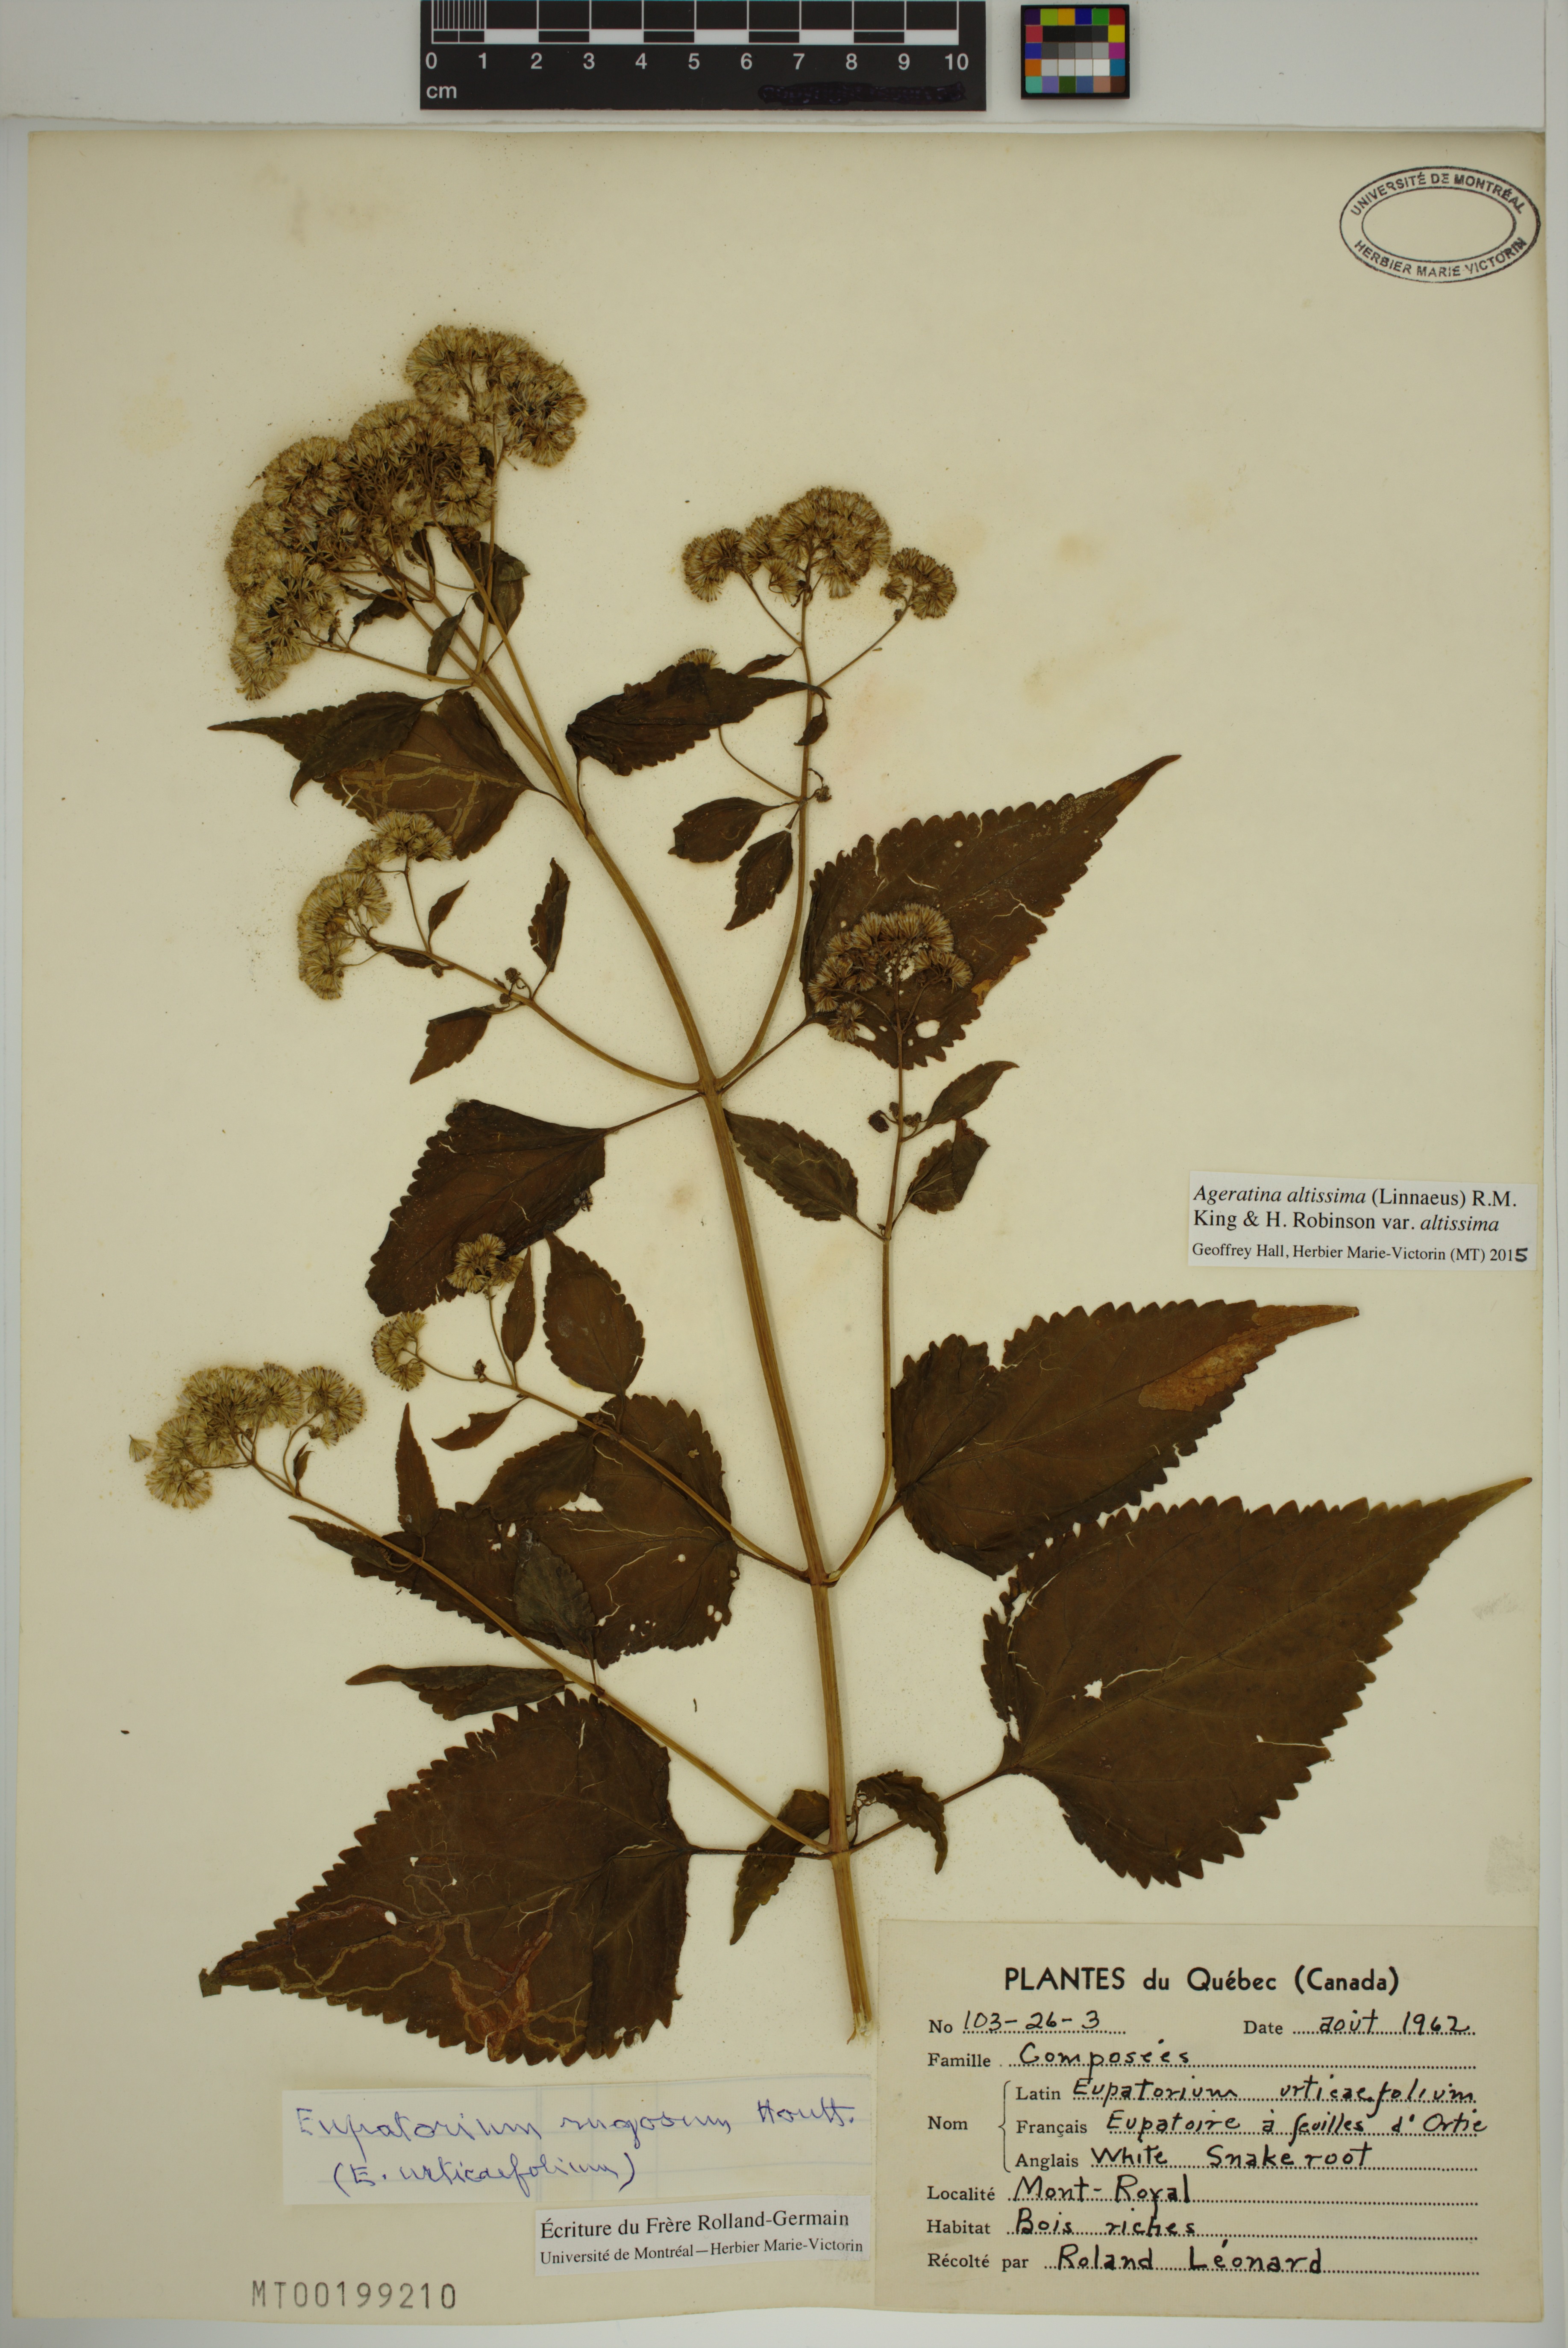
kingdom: Plantae
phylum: Tracheophyta
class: Magnoliopsida
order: Asterales
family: Asteraceae
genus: Ageratina
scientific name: Ageratina altissima
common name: White snakeroot
